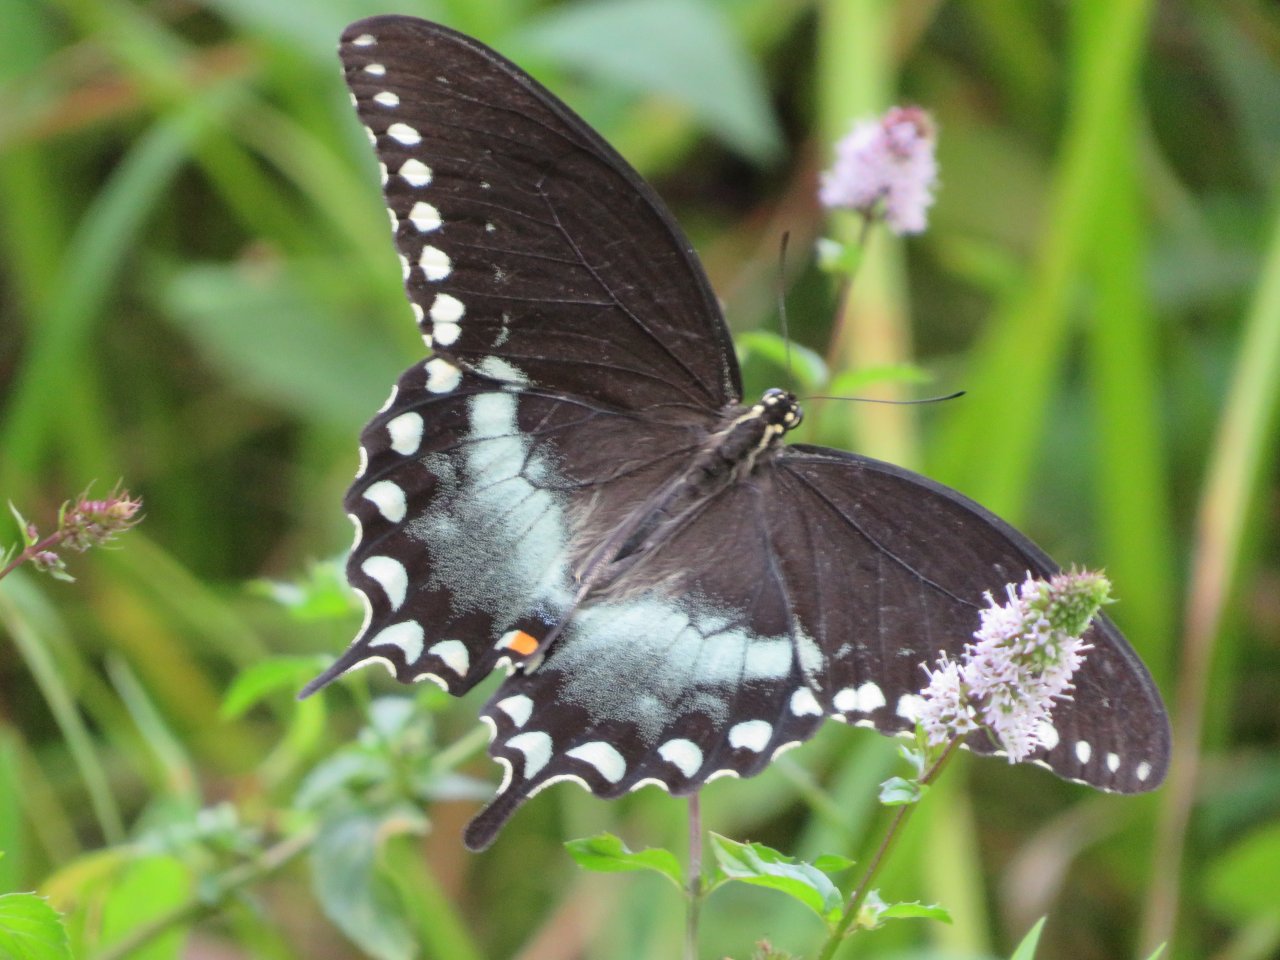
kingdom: Animalia
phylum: Arthropoda
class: Insecta
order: Lepidoptera
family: Papilionidae
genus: Pterourus
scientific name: Pterourus troilus
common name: Spicebush Swallowtail
